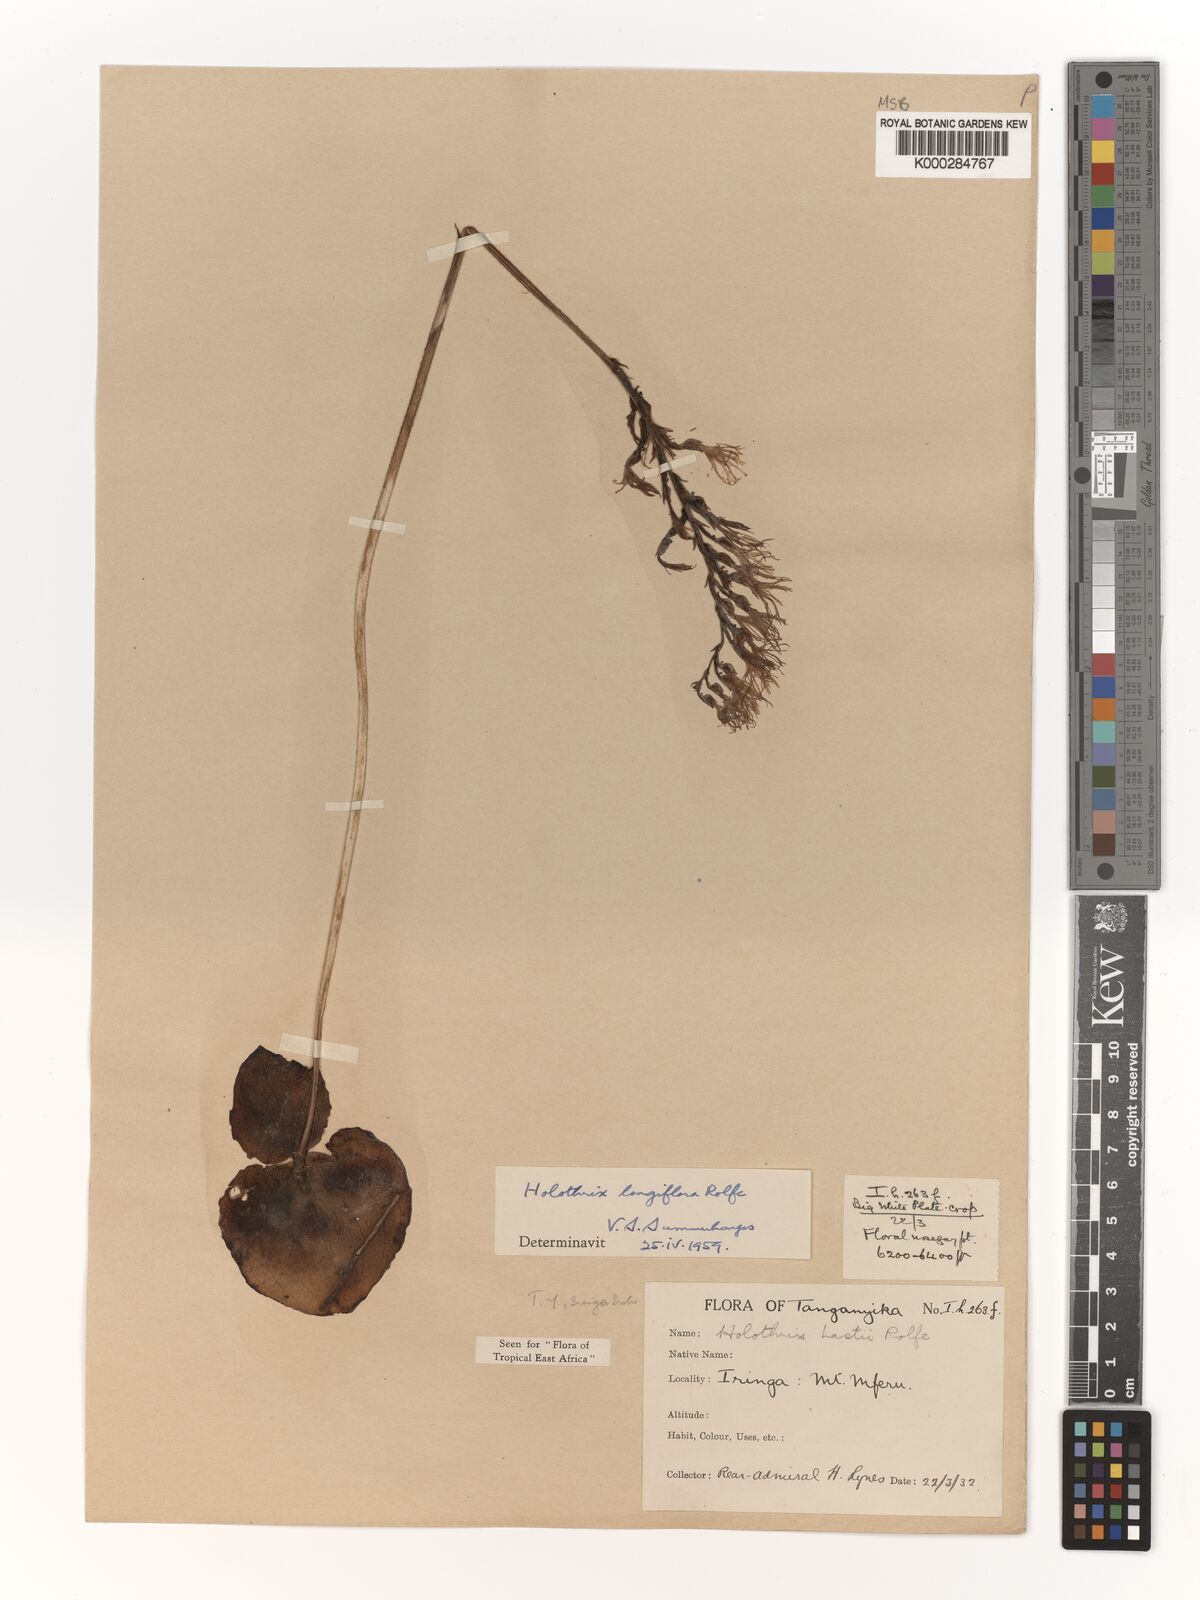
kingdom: Plantae
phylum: Tracheophyta
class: Liliopsida
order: Asparagales
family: Orchidaceae
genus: Holothrix
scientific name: Holothrix hydra
